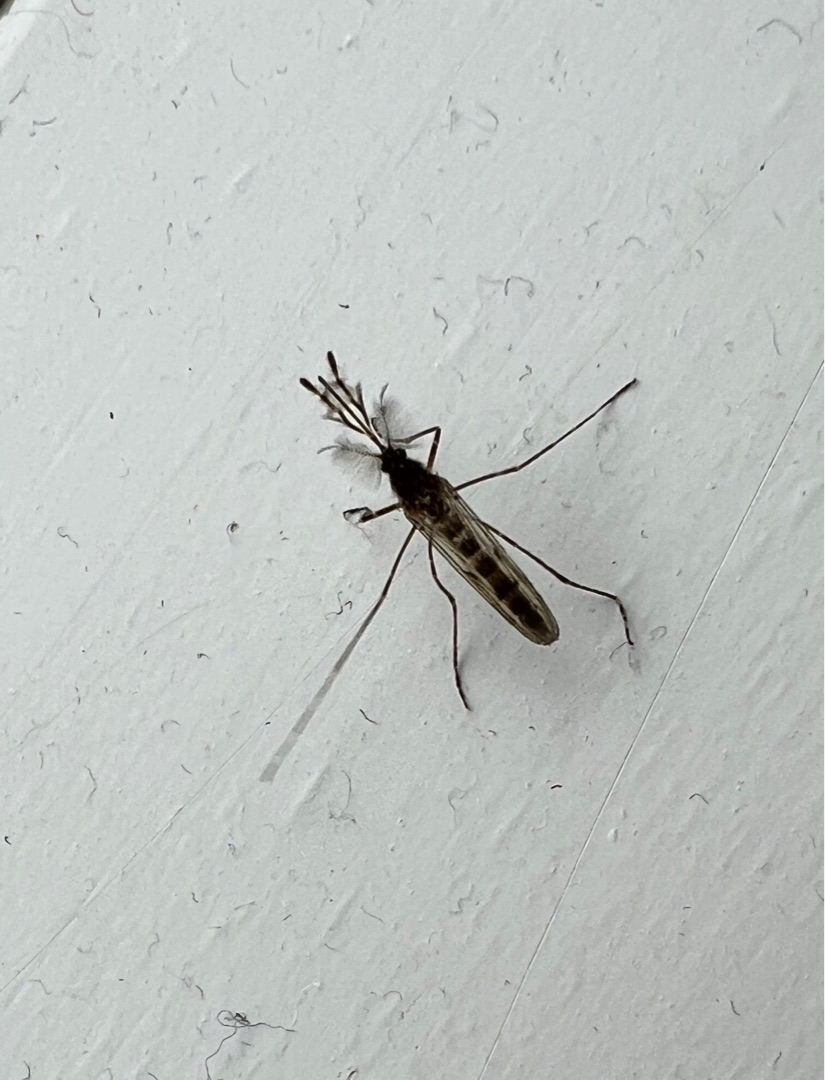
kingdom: Animalia
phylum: Arthropoda
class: Insecta
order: Diptera
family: Culicidae
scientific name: Culicidae
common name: Stikmyg
